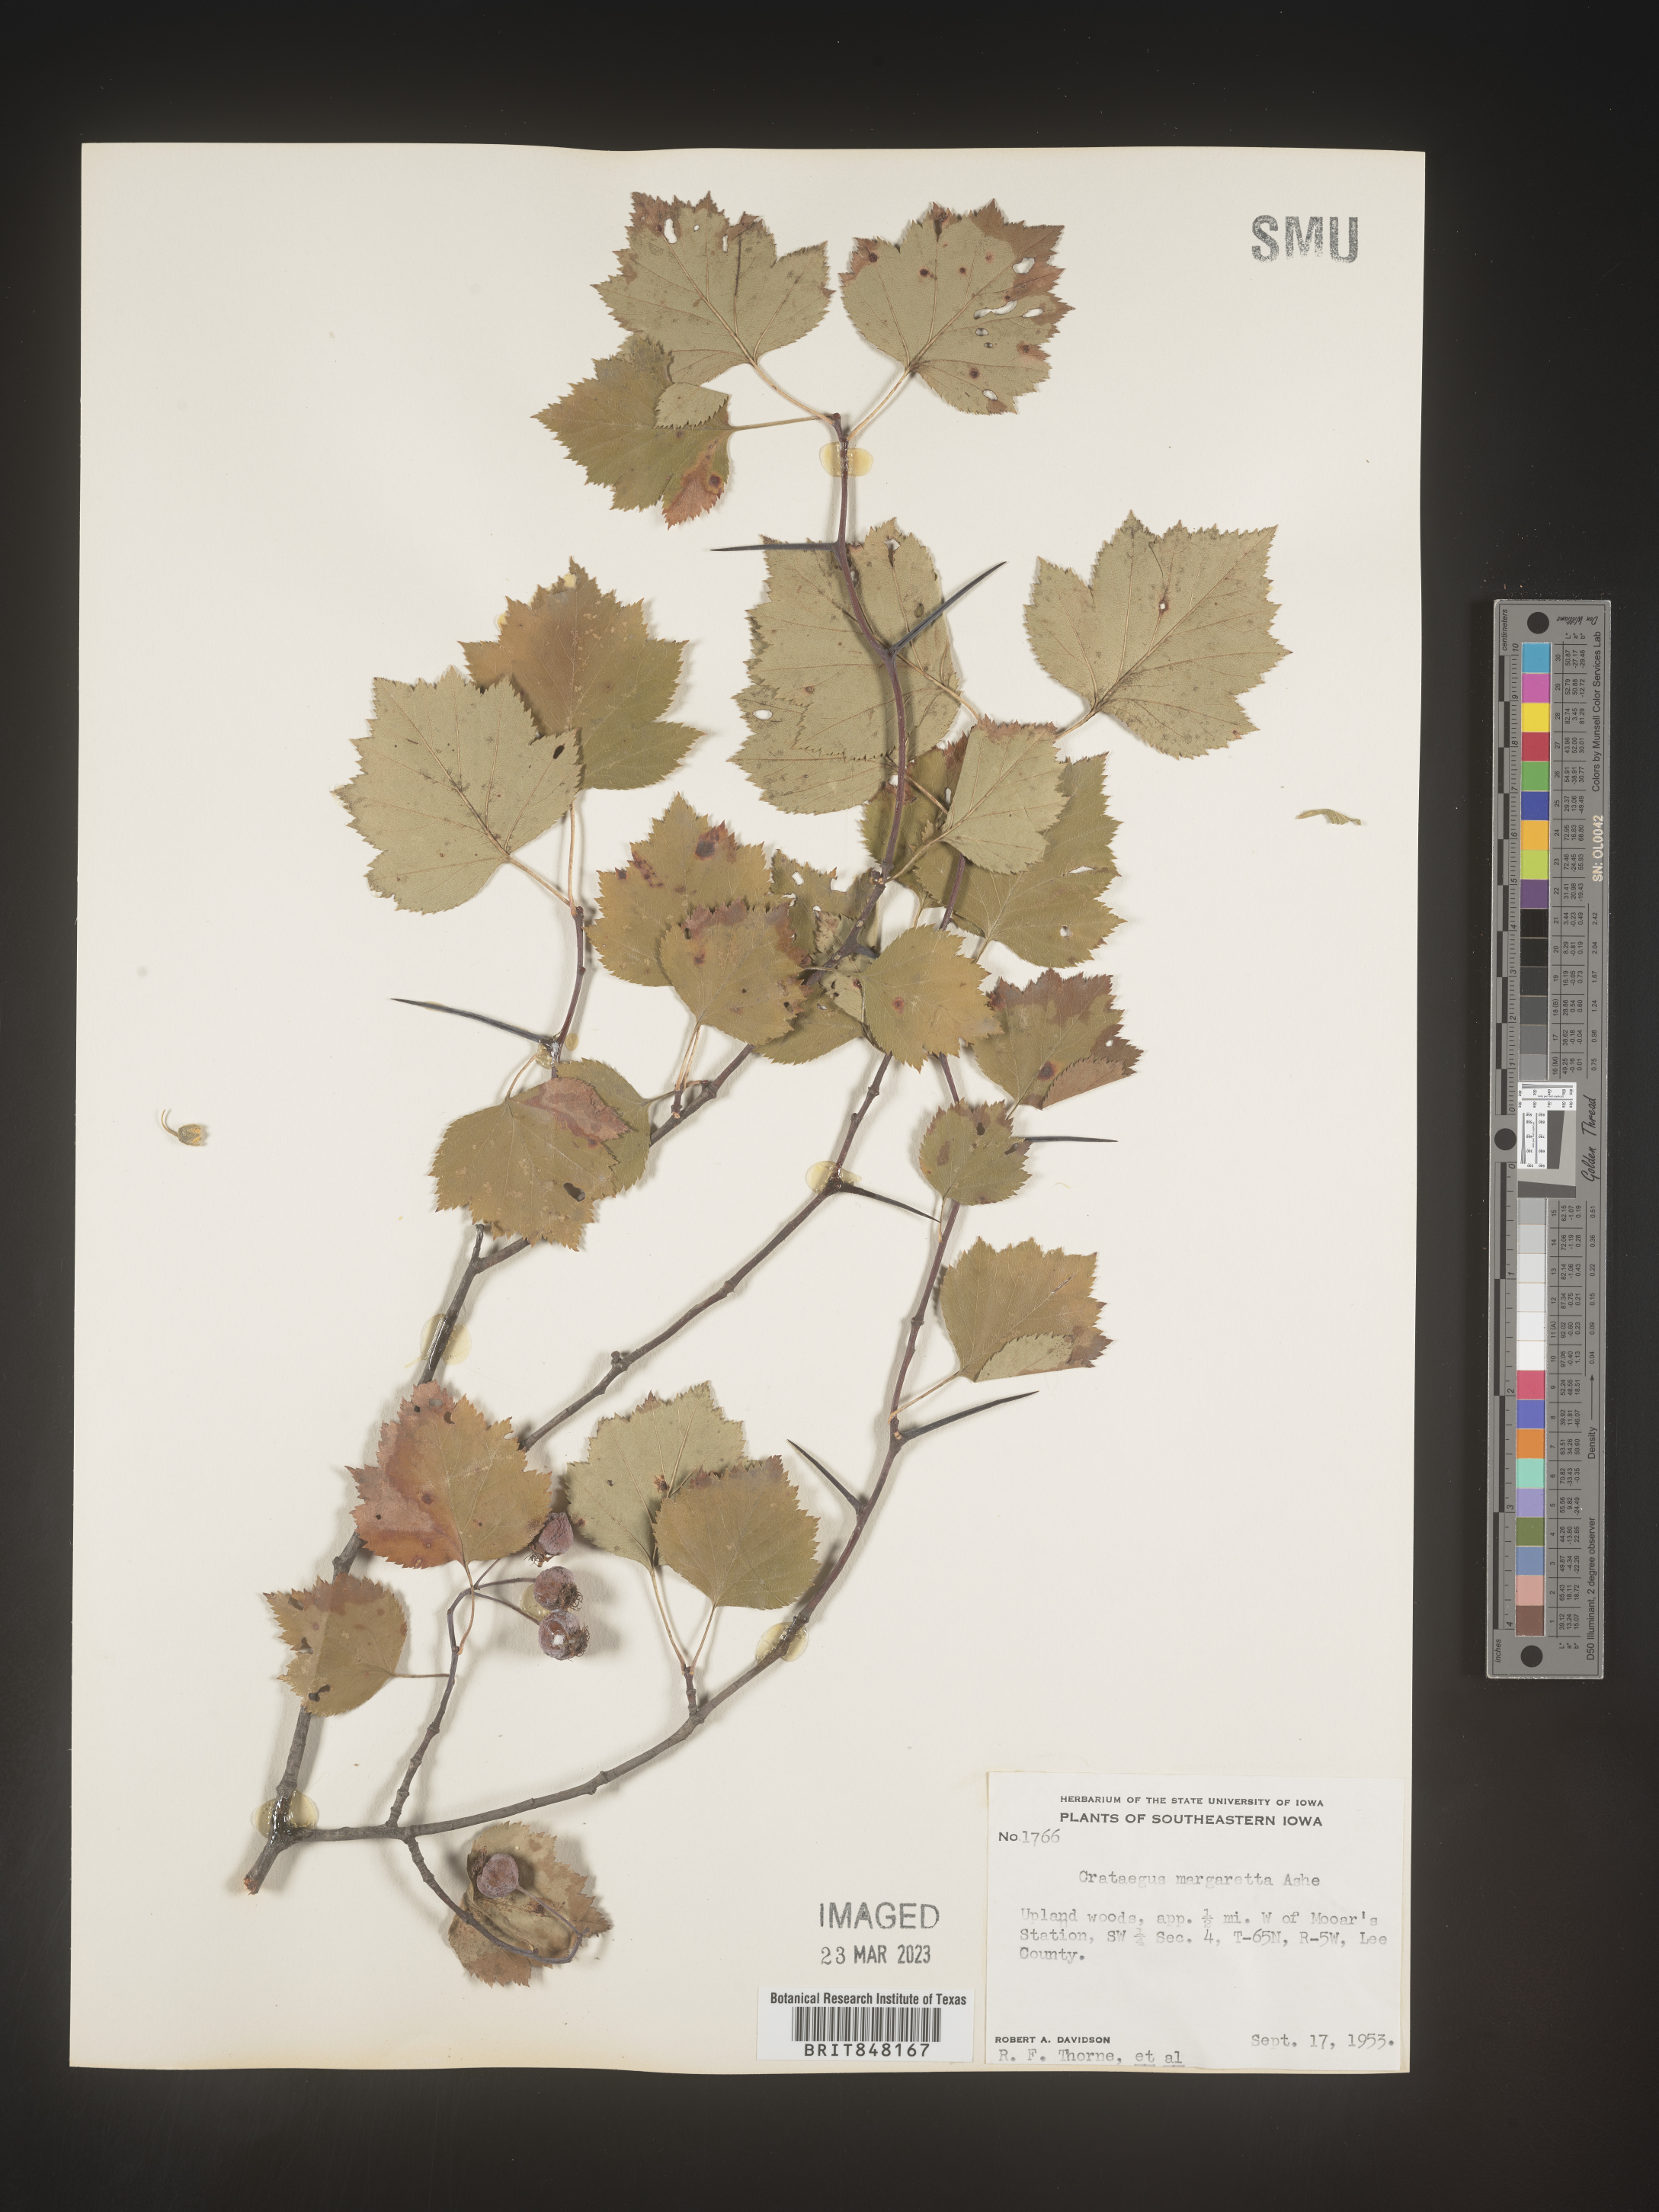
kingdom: Plantae
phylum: Tracheophyta
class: Magnoliopsida
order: Rosales
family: Rosaceae
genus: Crataegus
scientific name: Crataegus margaretta
